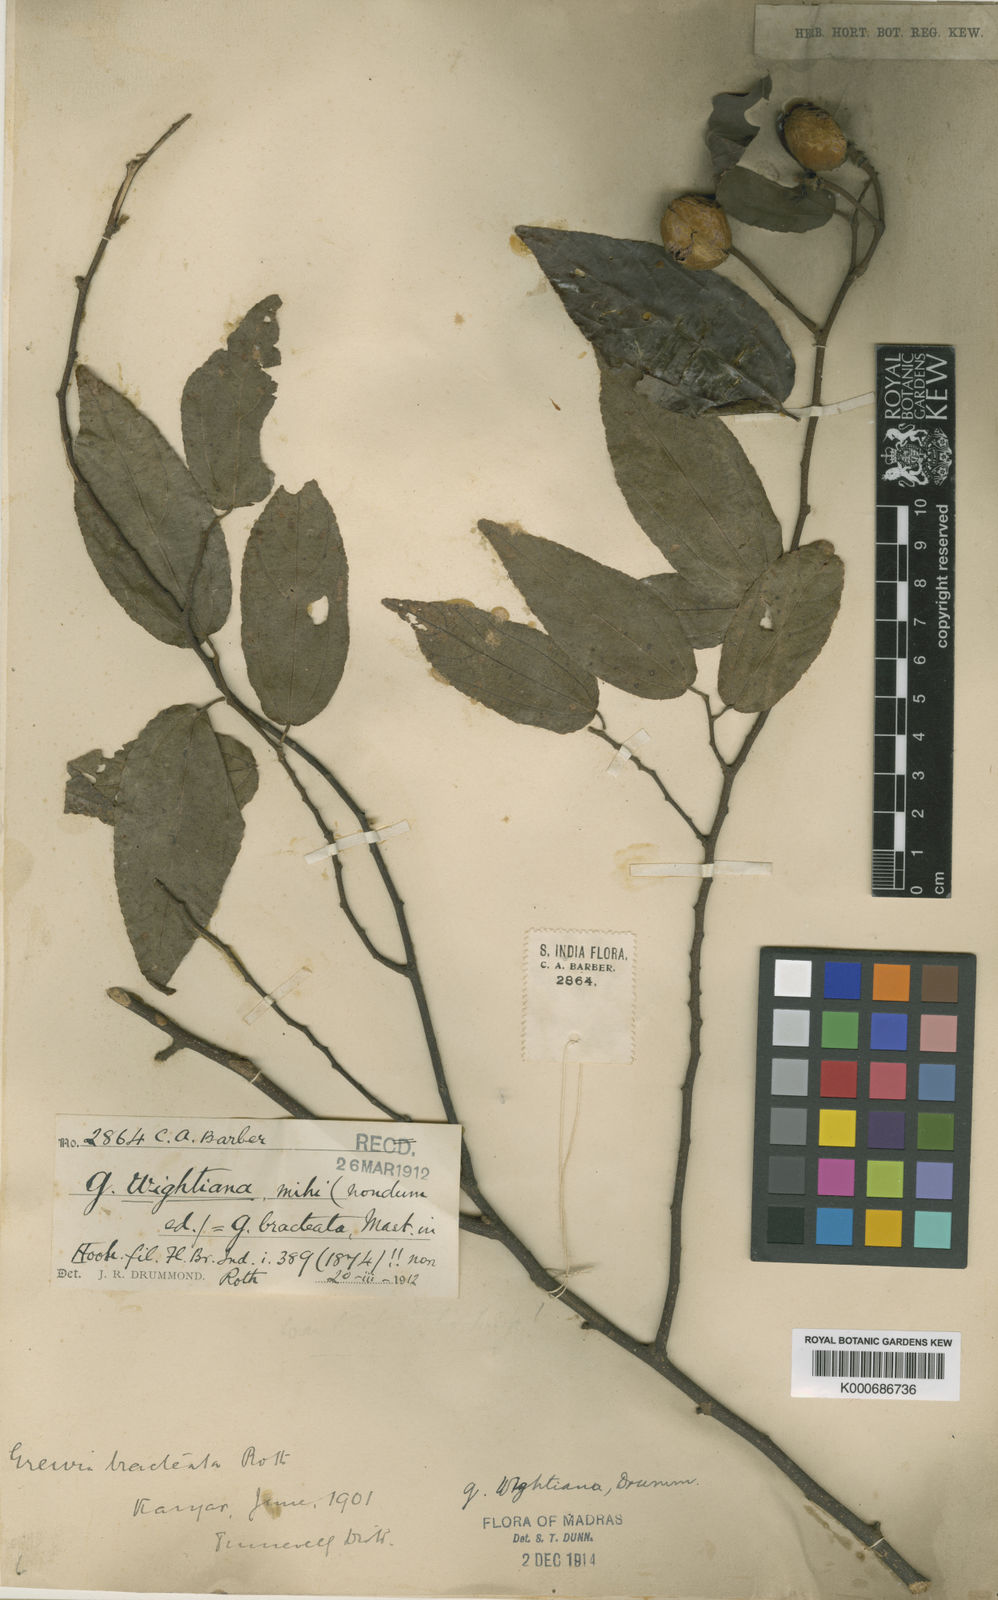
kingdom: Plantae
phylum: Tracheophyta
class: Magnoliopsida
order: Malvales
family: Malvaceae
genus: Grewia
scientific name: Grewia bracteata
